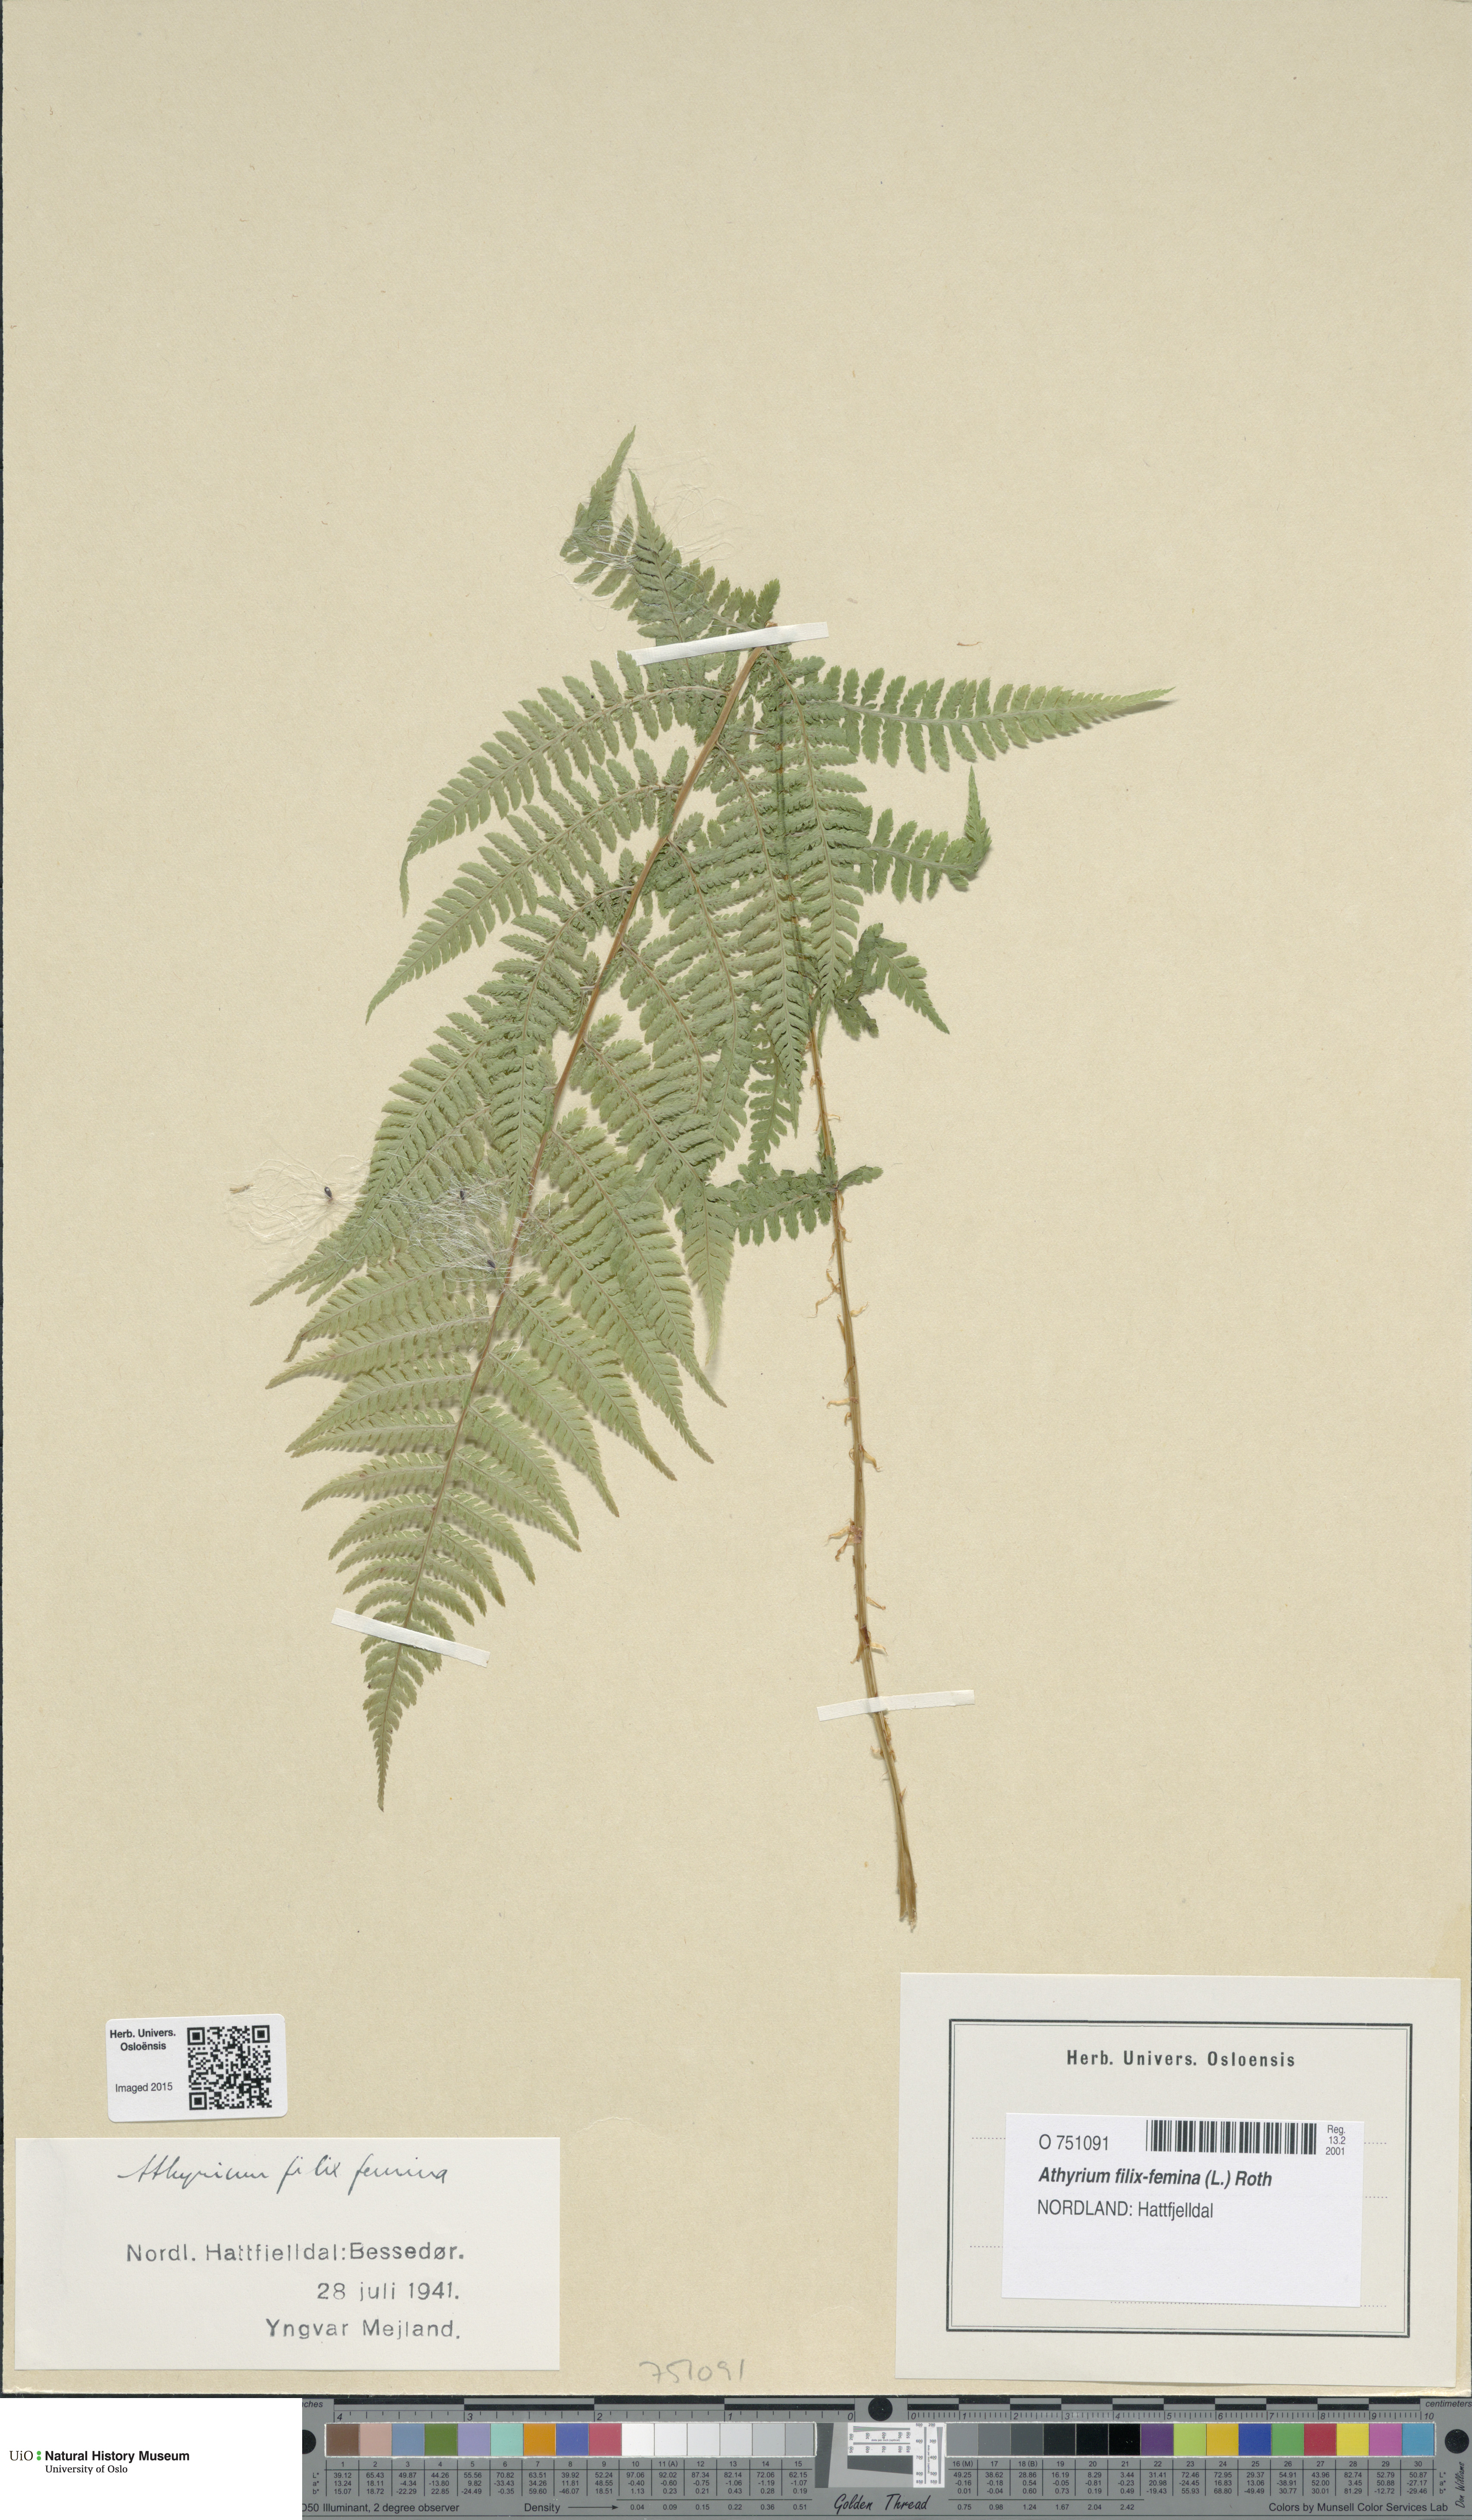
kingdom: Plantae
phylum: Tracheophyta
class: Polypodiopsida
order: Polypodiales
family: Athyriaceae
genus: Athyrium
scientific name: Athyrium filix-femina
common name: Lady fern
